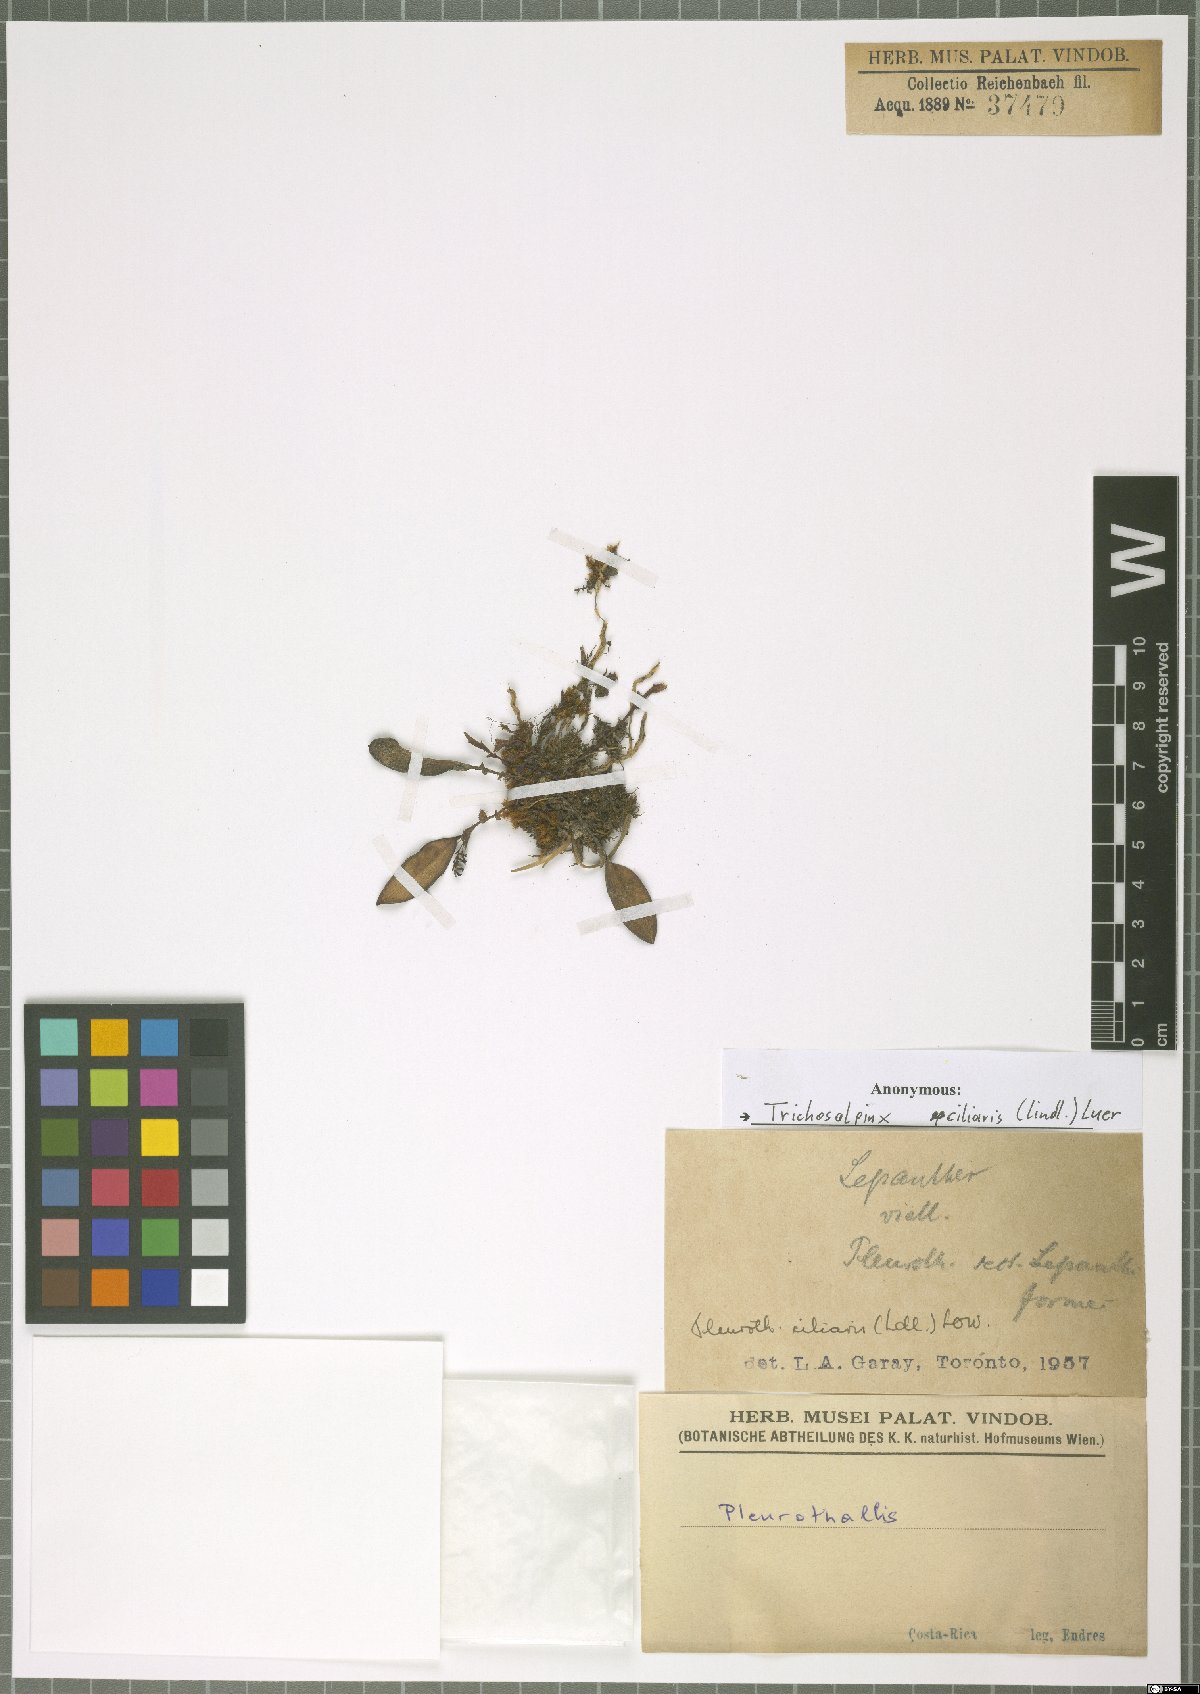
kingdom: Plantae
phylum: Tracheophyta
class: Liliopsida
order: Asparagales
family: Orchidaceae
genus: Trichosalpinx
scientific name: Trichosalpinx ciliaris
